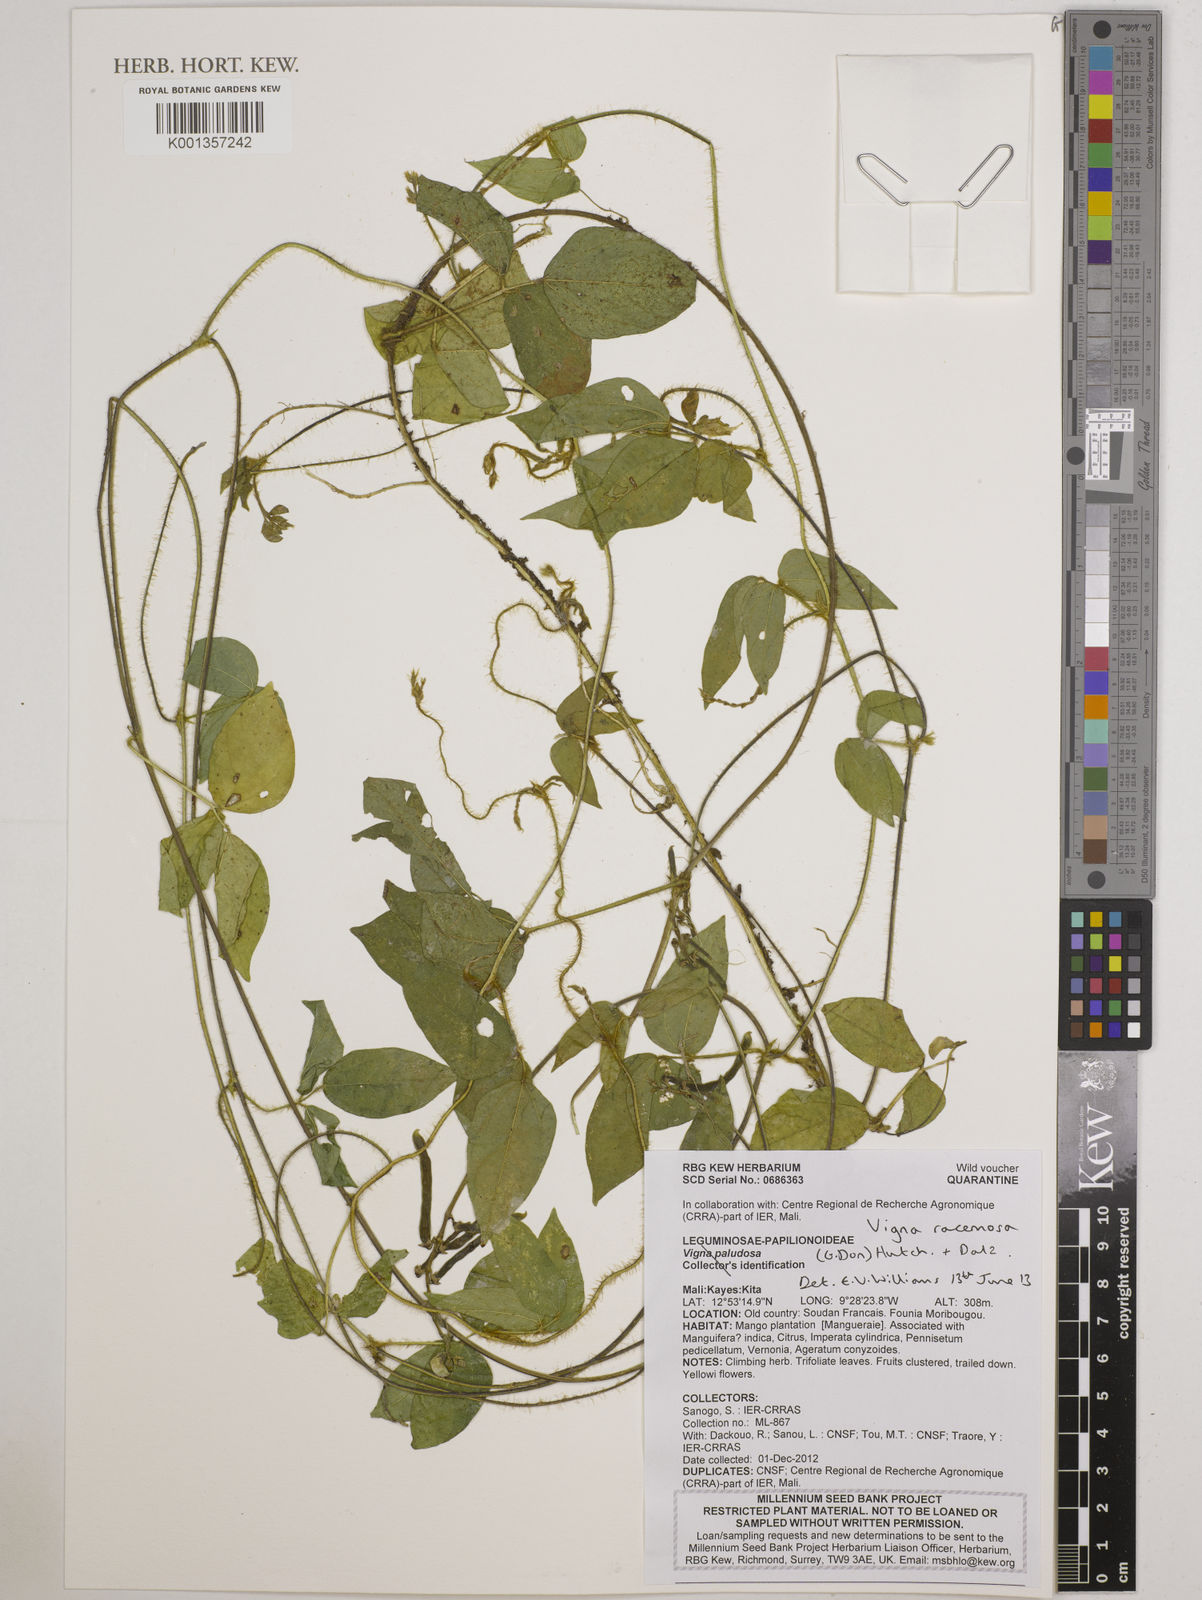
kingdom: Plantae
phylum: Tracheophyta
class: Magnoliopsida
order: Fabales
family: Fabaceae
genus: Vigna
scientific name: Vigna racemosa
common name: Beans not eaten
